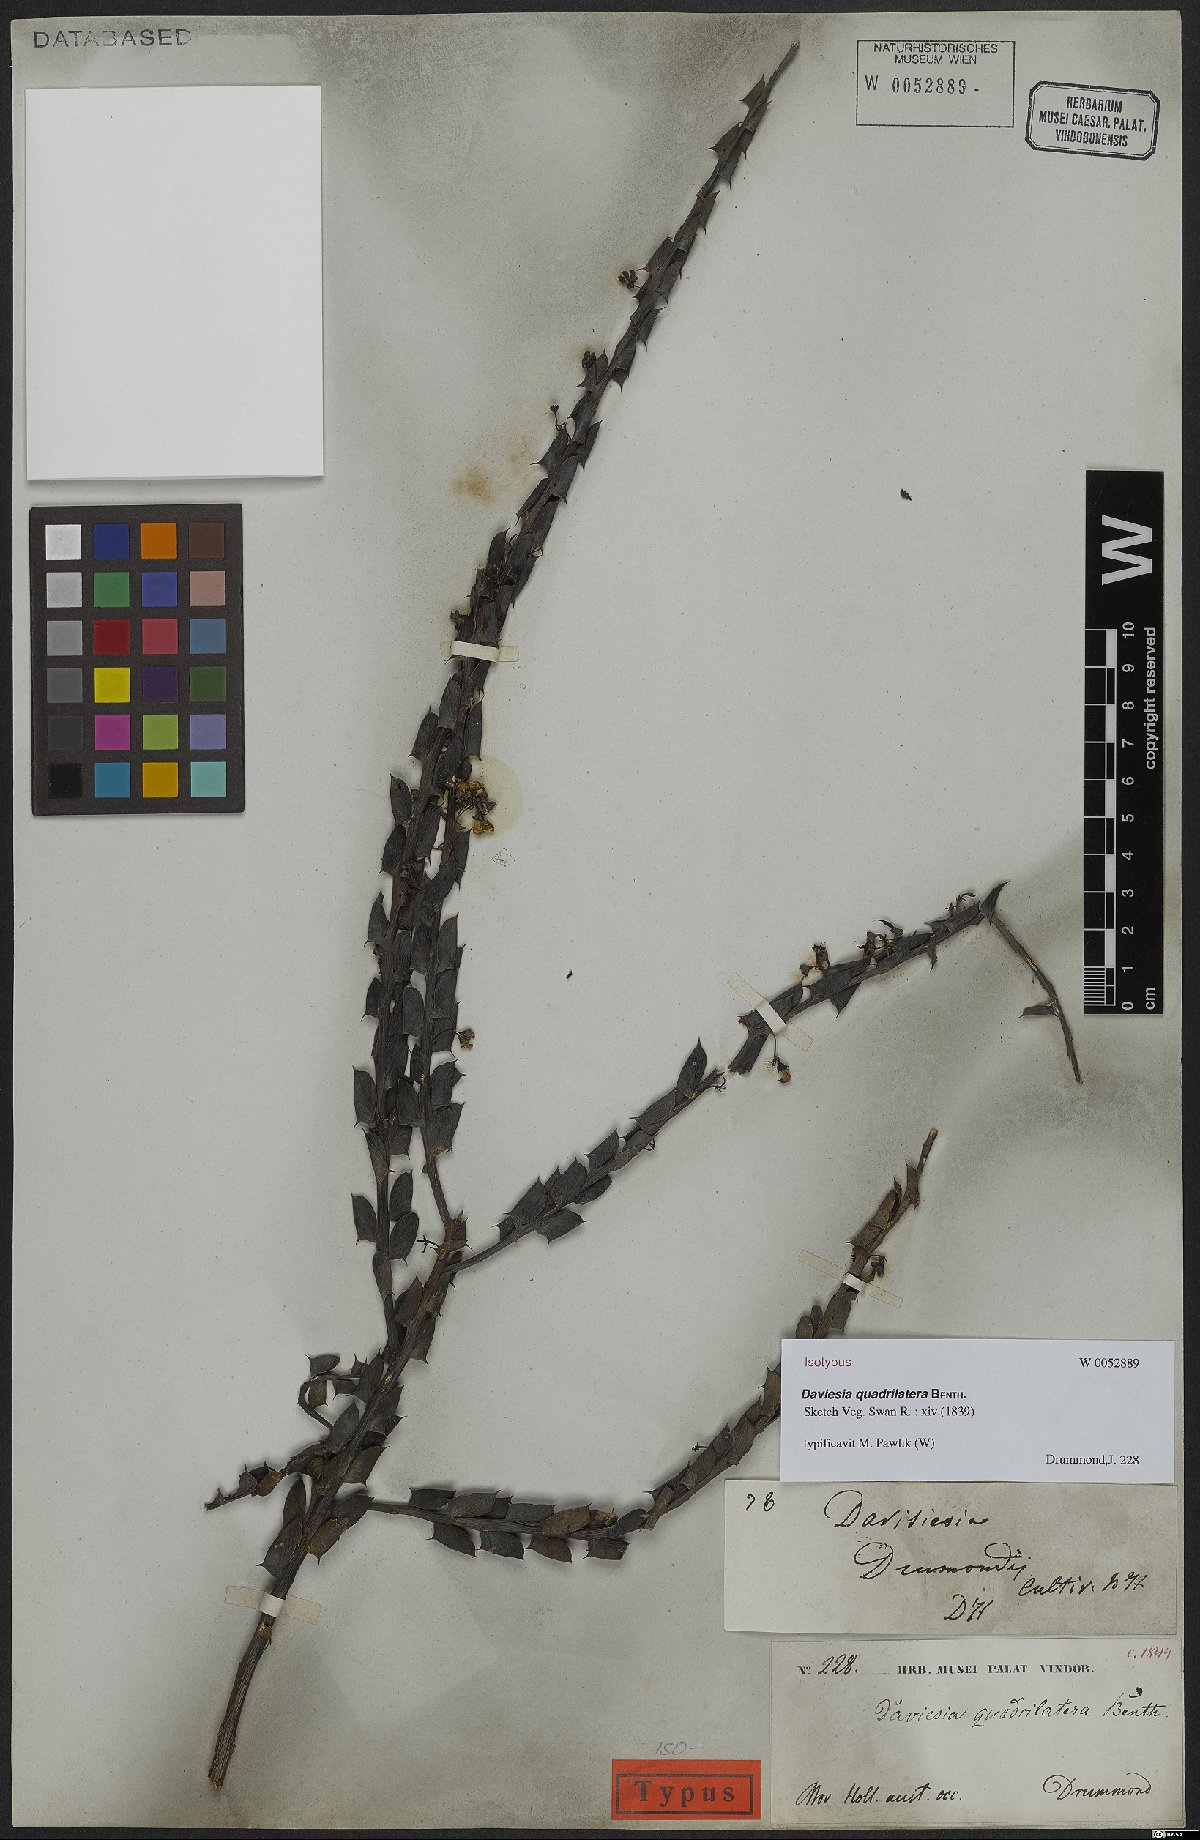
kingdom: Plantae
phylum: Tracheophyta
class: Magnoliopsida
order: Fabales
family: Fabaceae
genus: Daviesia
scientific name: Daviesia quadrilatera
